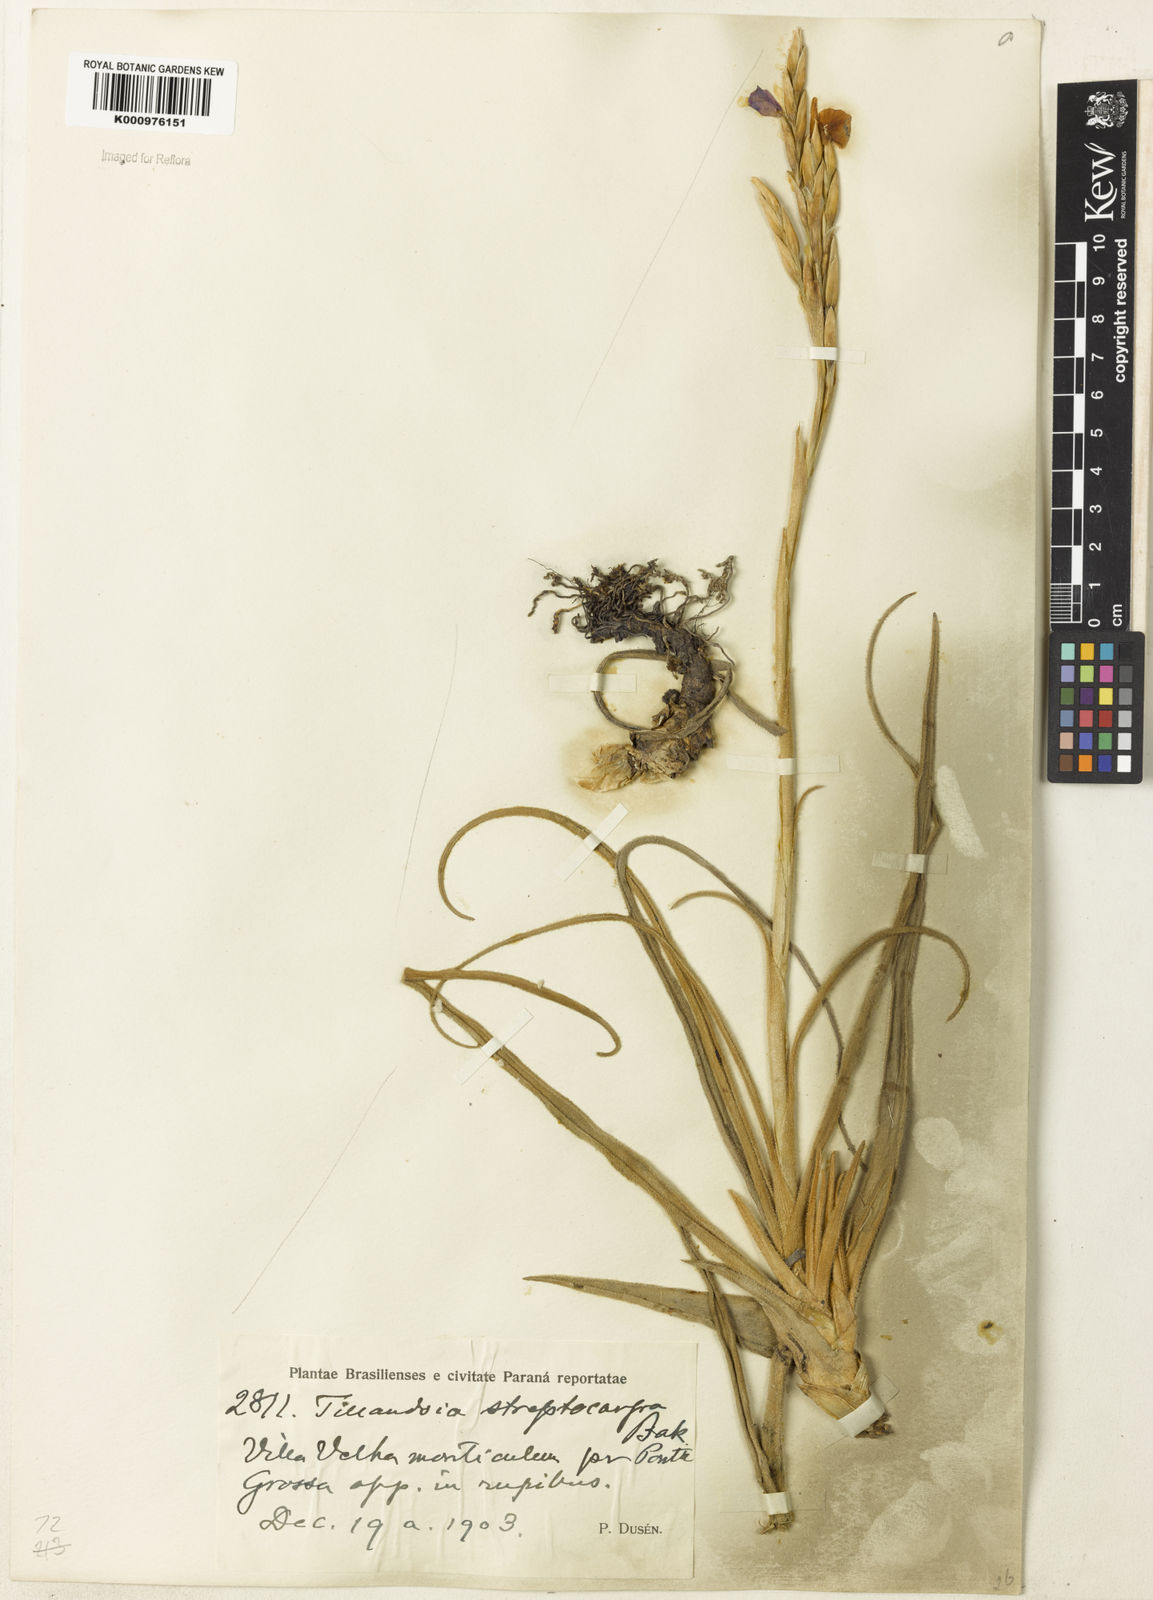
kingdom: Plantae
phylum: Tracheophyta
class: Liliopsida
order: Poales
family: Bromeliaceae
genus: Tillandsia
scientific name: Tillandsia streptocarpa
